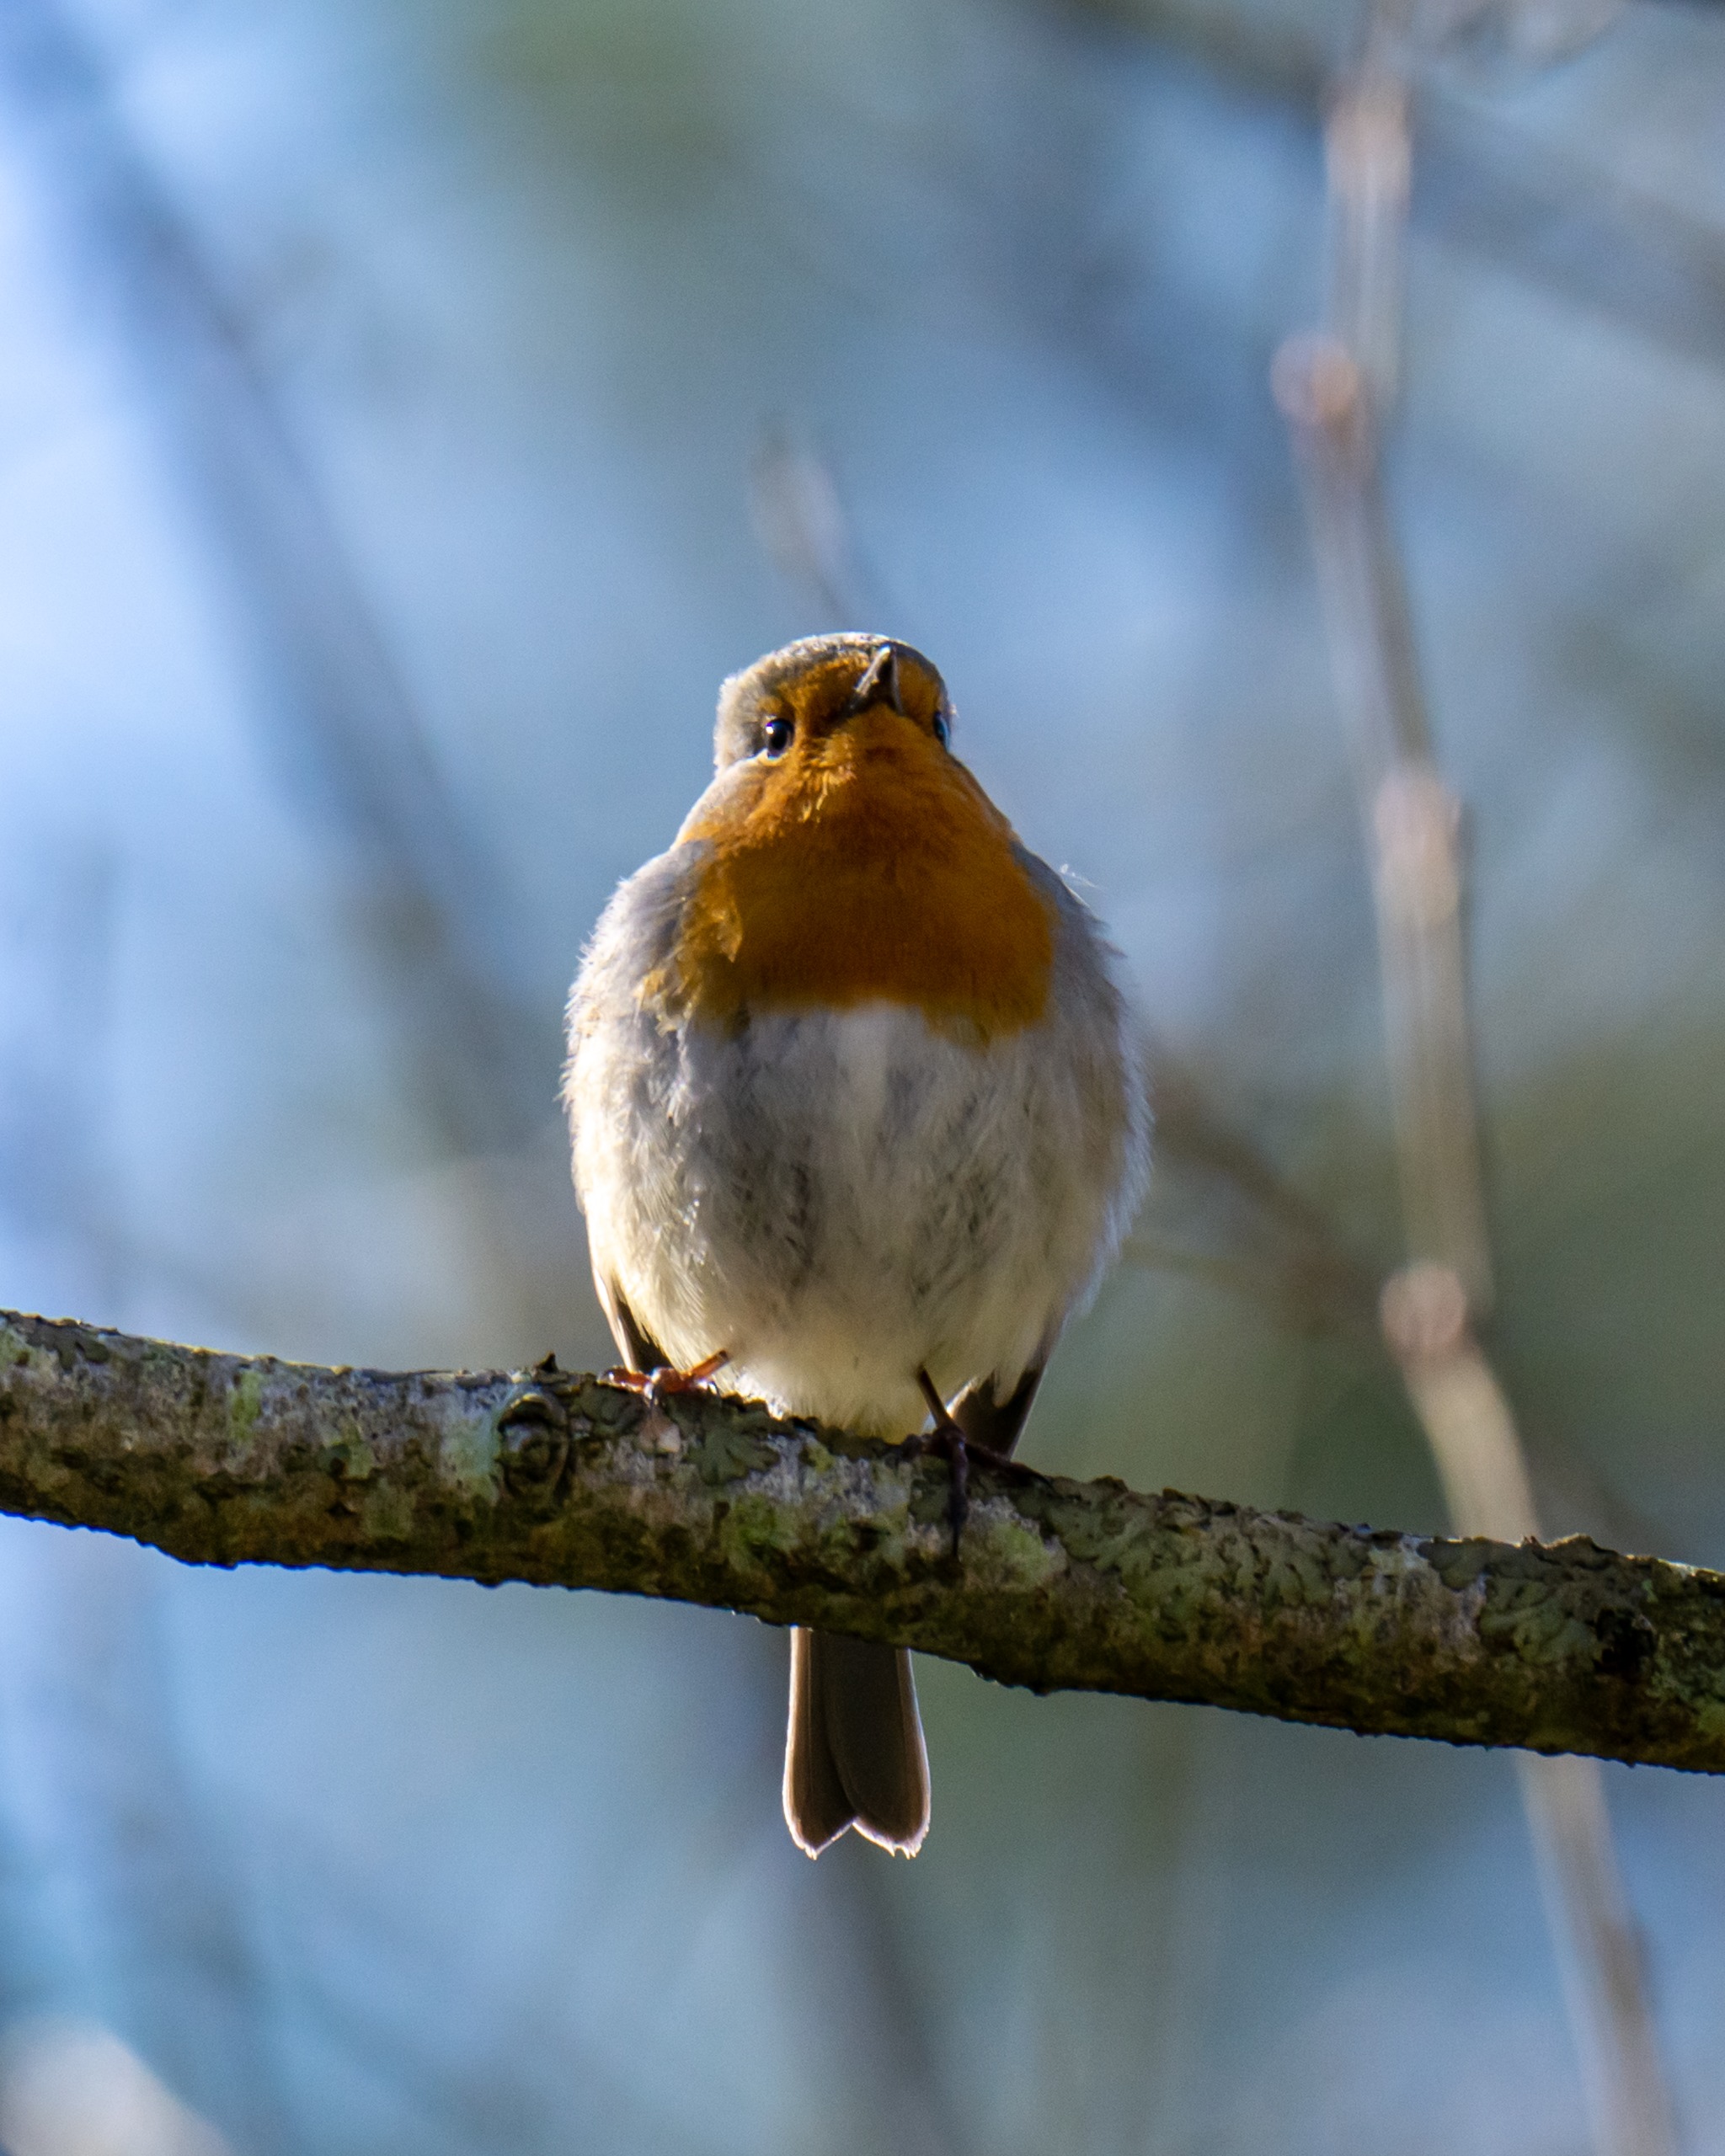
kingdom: Animalia
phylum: Chordata
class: Aves
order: Passeriformes
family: Muscicapidae
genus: Erithacus
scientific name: Erithacus rubecula
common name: Rødhals/rødkælk
